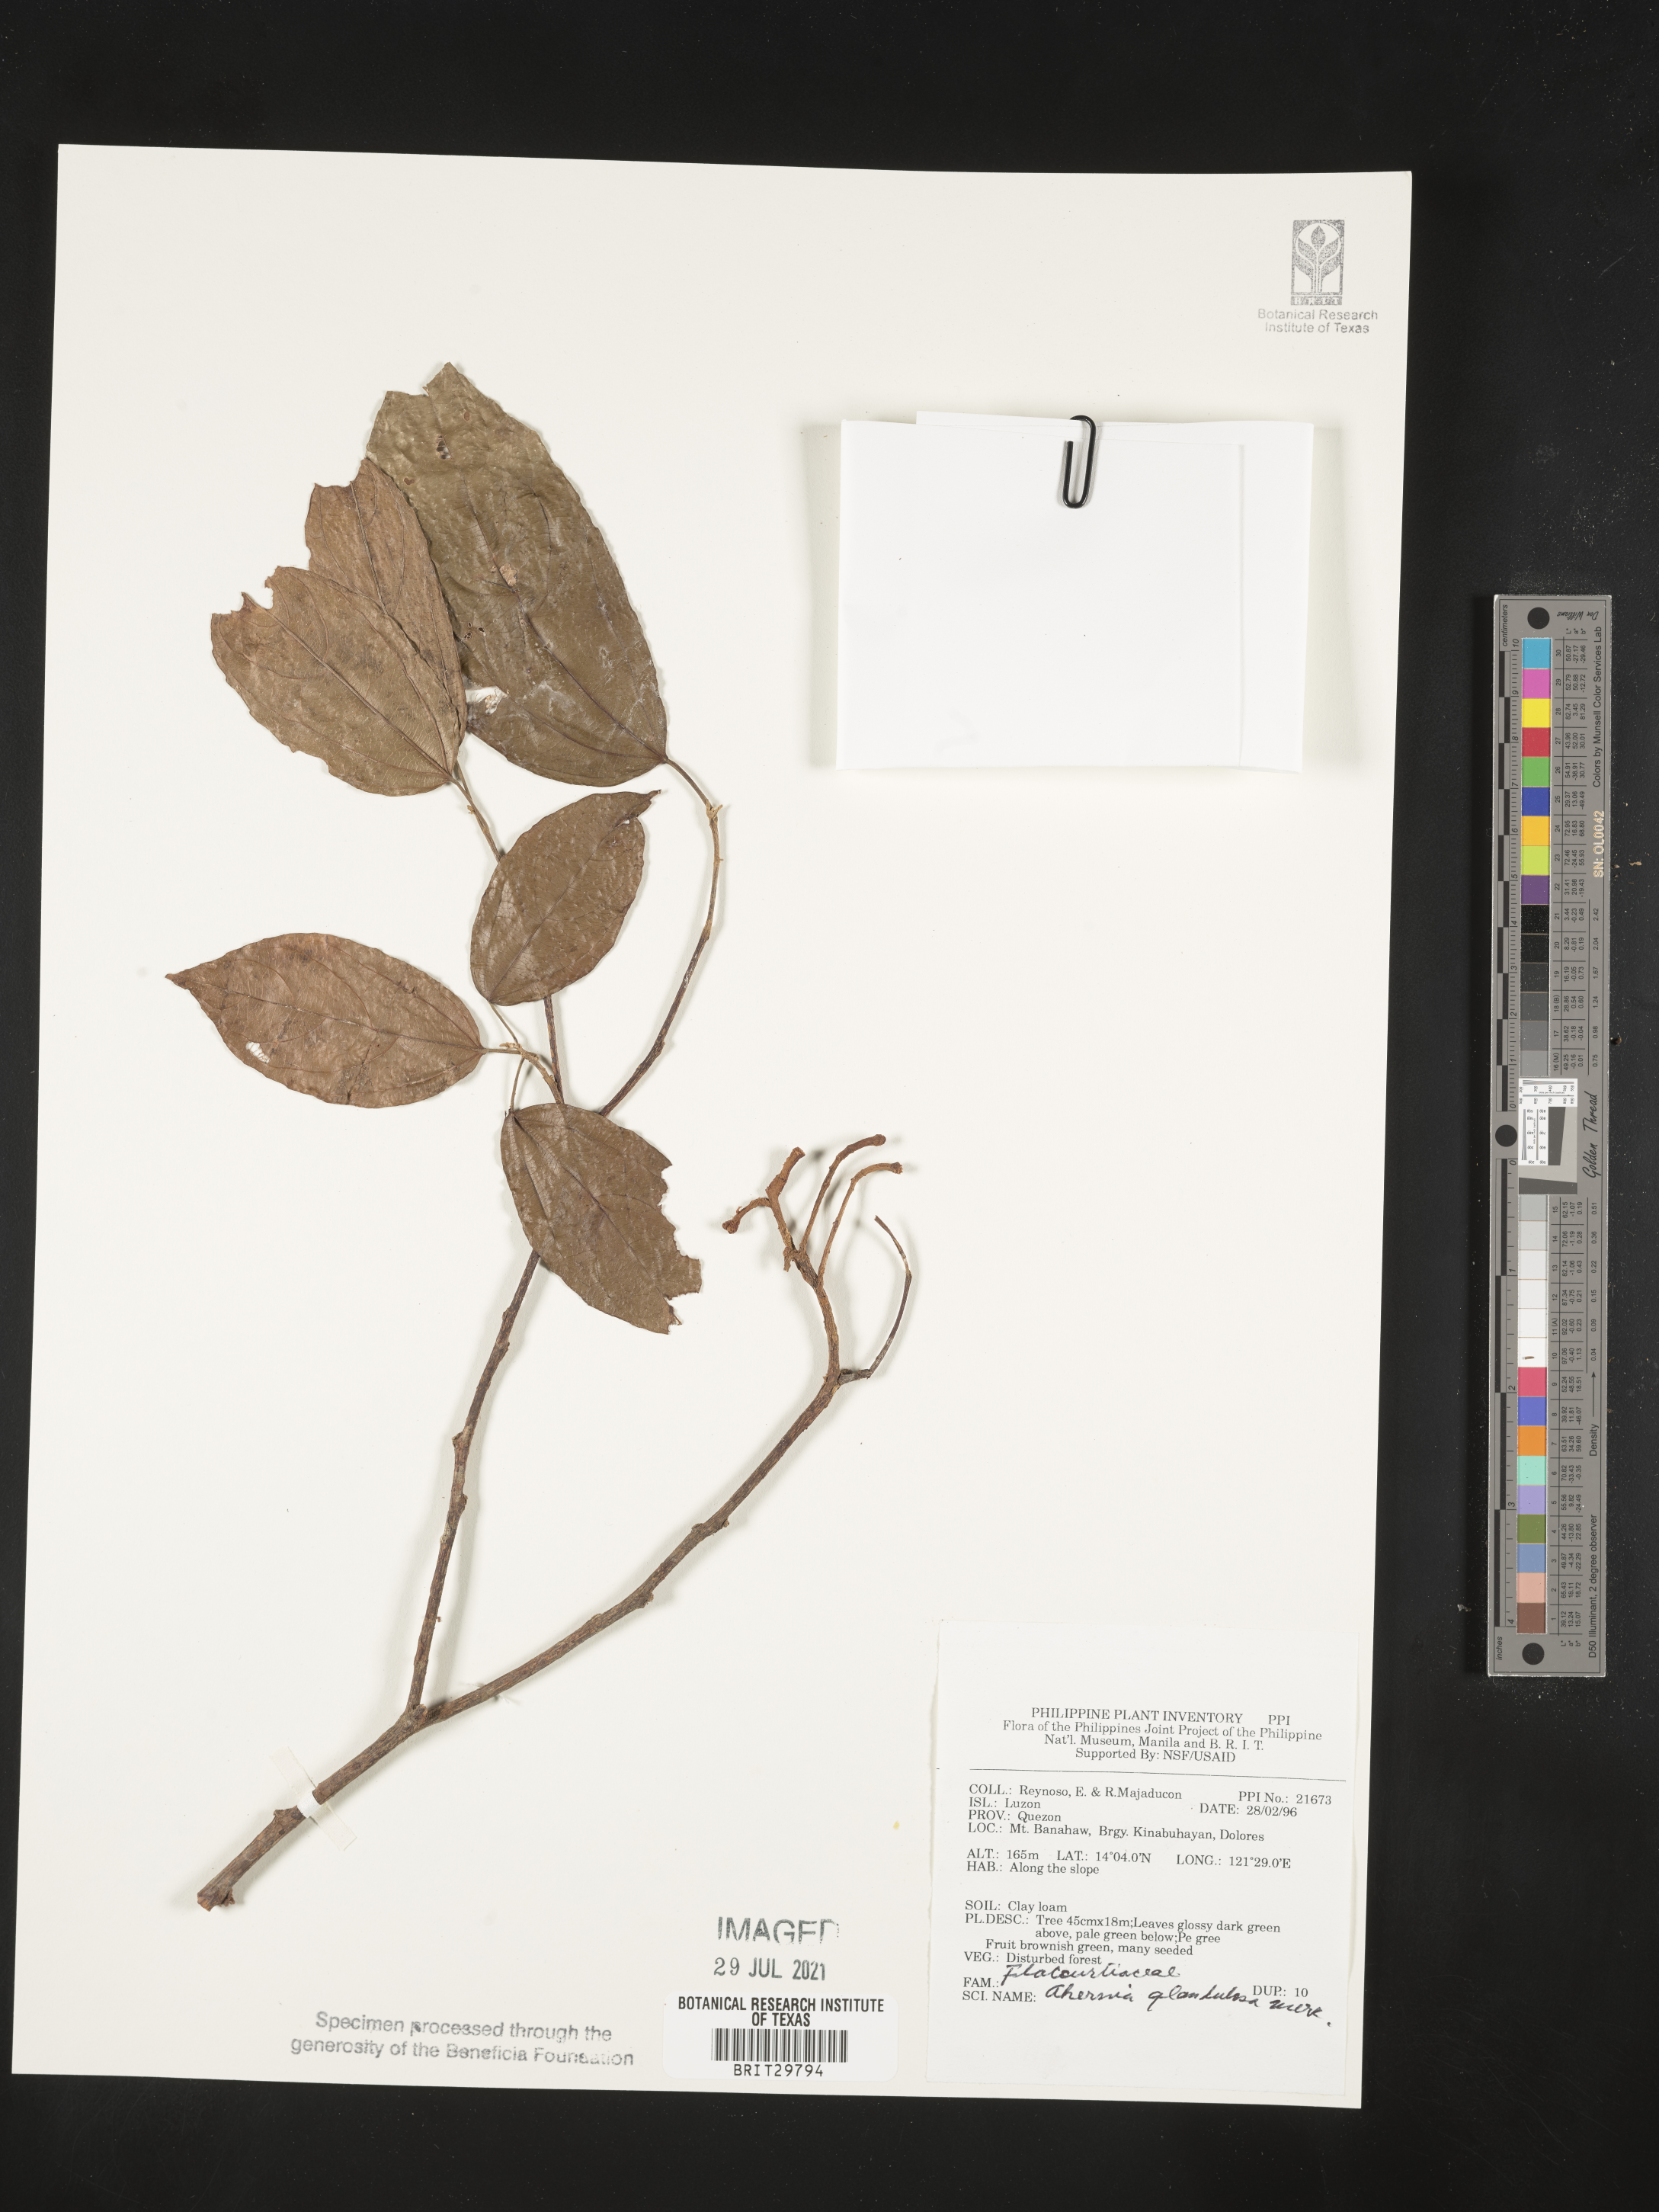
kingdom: Plantae
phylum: Tracheophyta
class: Magnoliopsida
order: Malpighiales
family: Achariaceae
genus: Ahernia
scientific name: Ahernia glandulosa
